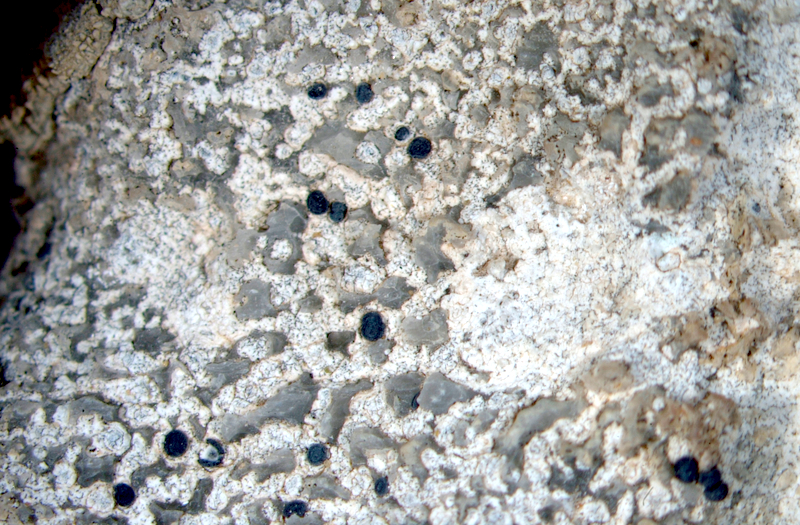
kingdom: Fungi
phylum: Ascomycota
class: Lecanoromycetes
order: Caliciales
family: Caliciaceae
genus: Buellia
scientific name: Buellia
